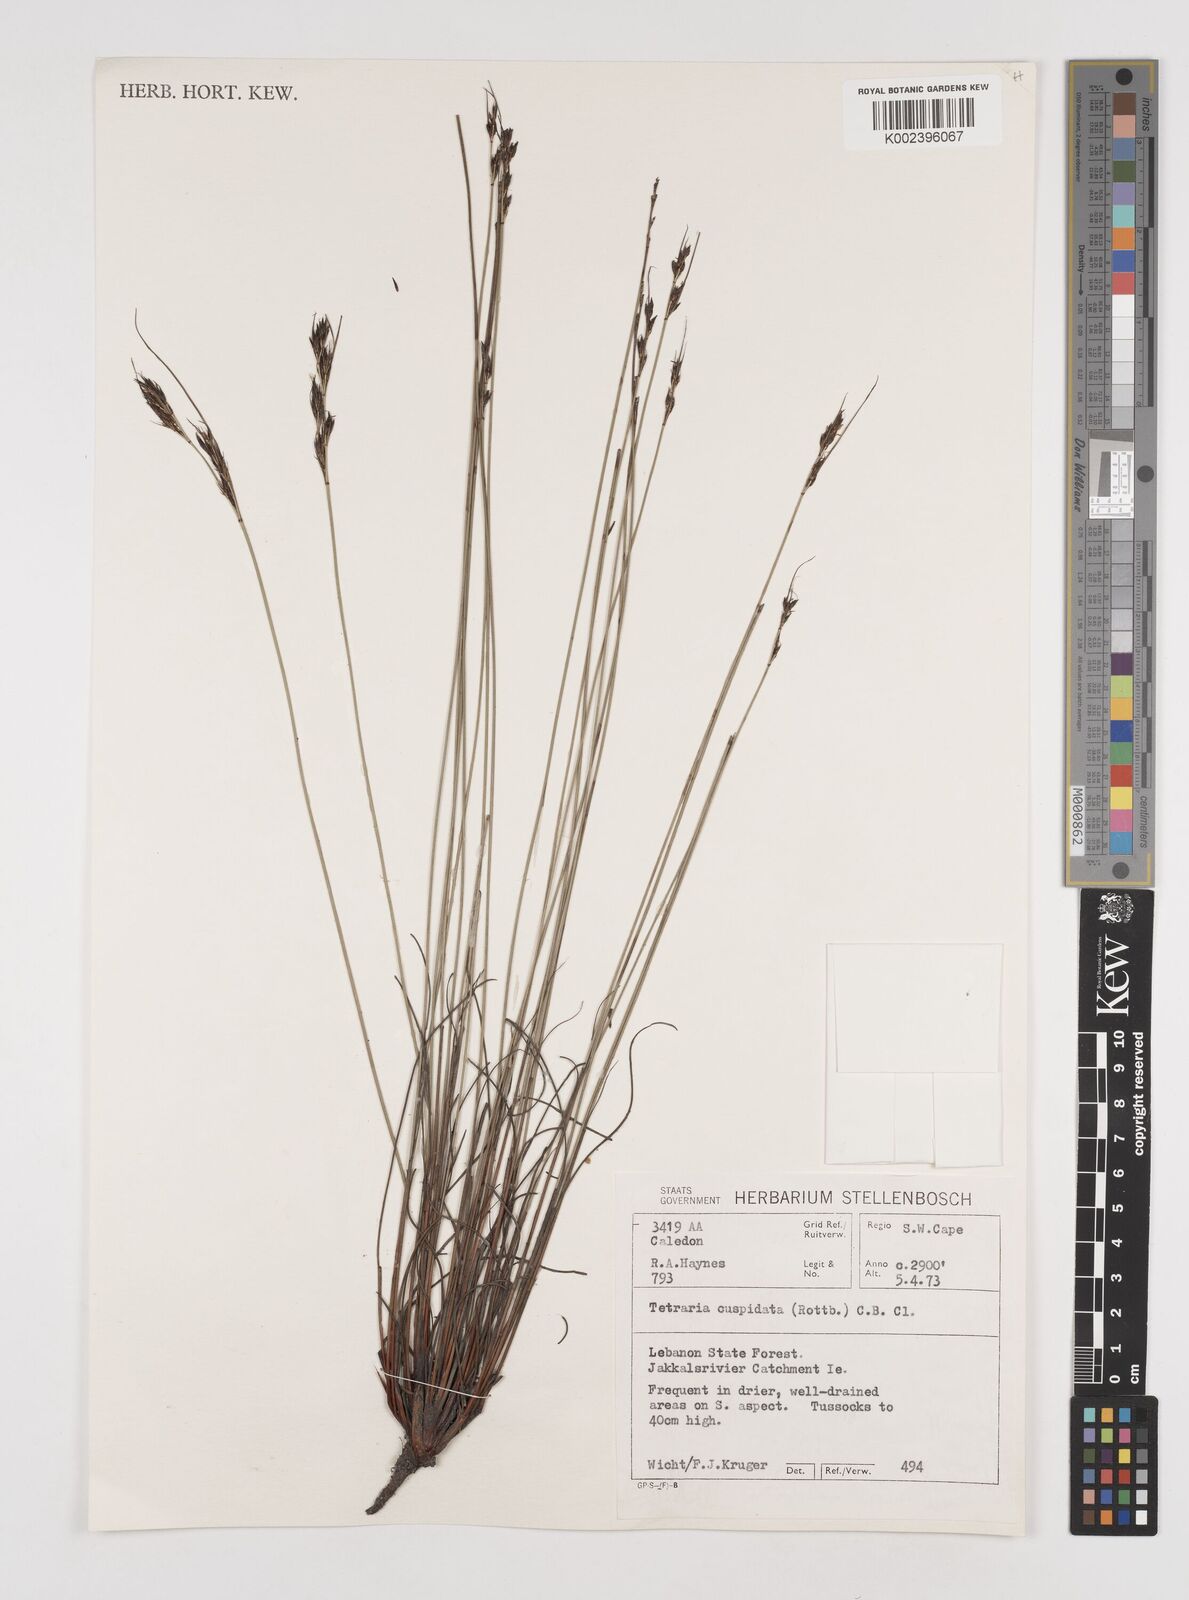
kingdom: Plantae
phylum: Tracheophyta
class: Liliopsida
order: Poales
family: Cyperaceae
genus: Schoenus
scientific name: Schoenus cuspidatus
